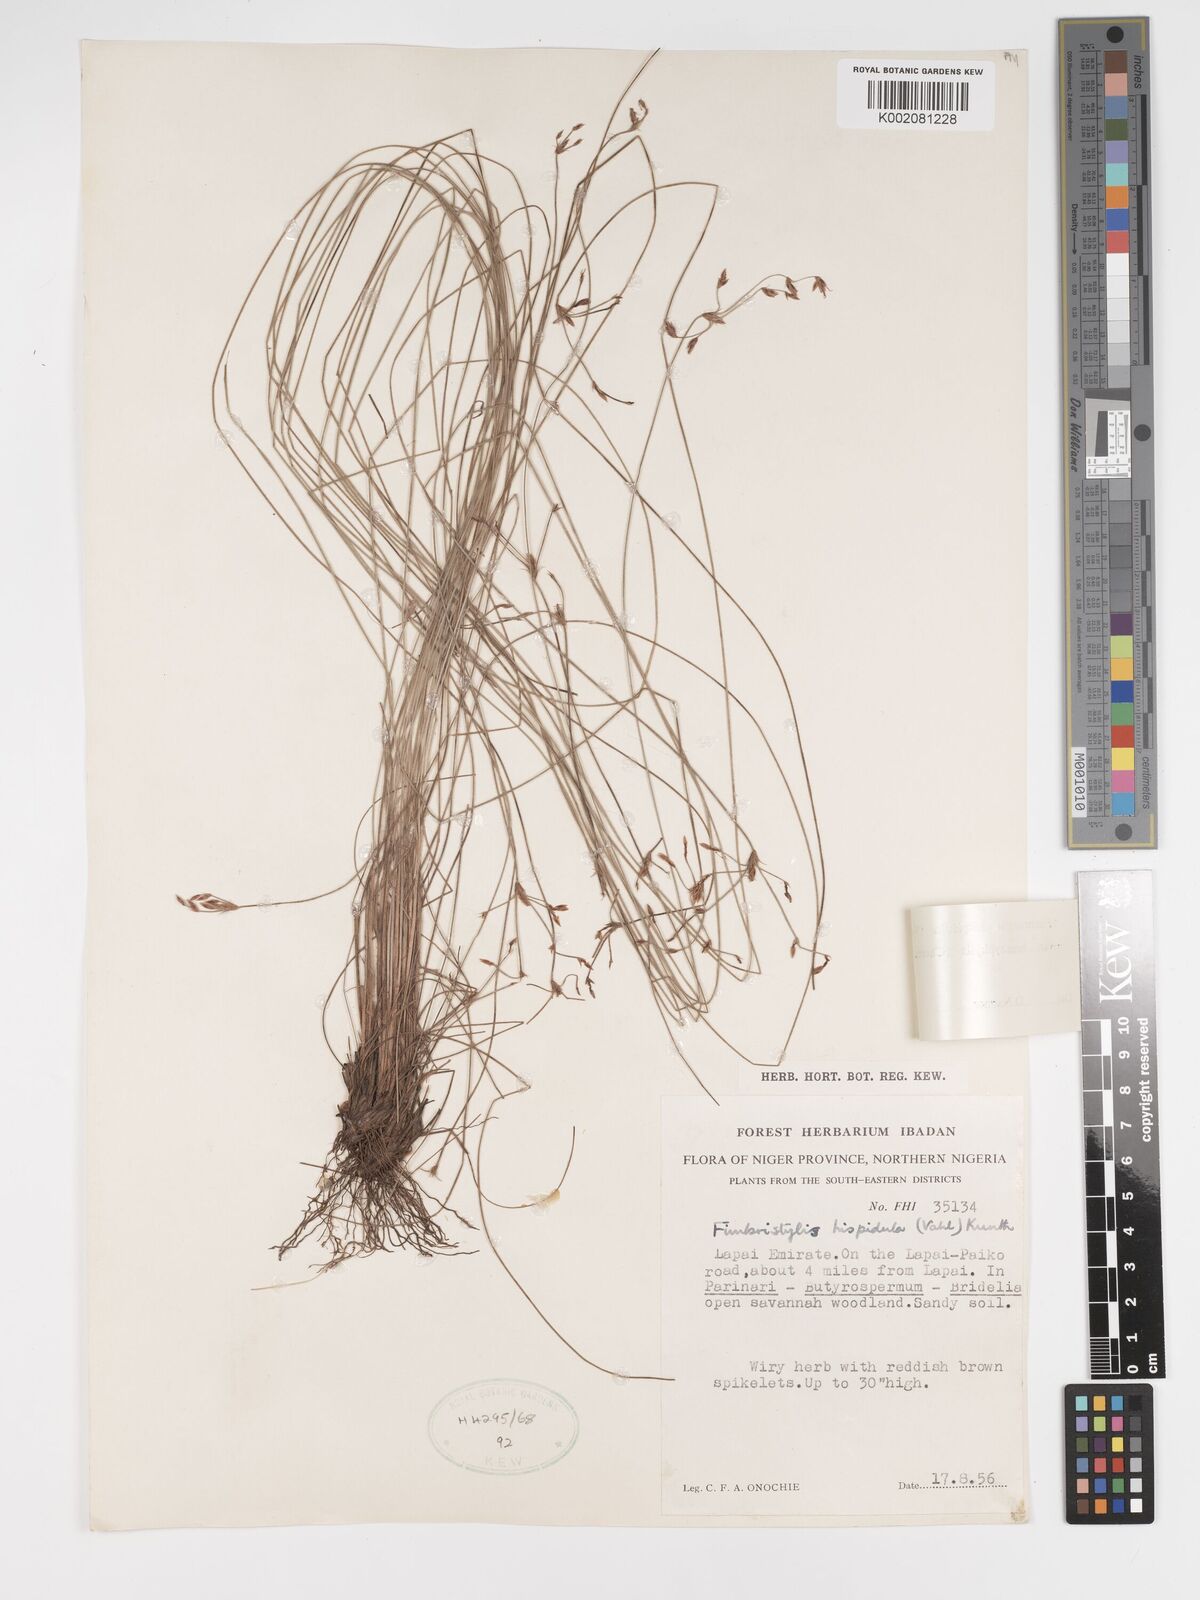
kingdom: Plantae
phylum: Tracheophyta
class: Liliopsida
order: Poales
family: Cyperaceae
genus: Bulbostylis
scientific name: Bulbostylis hispidula
